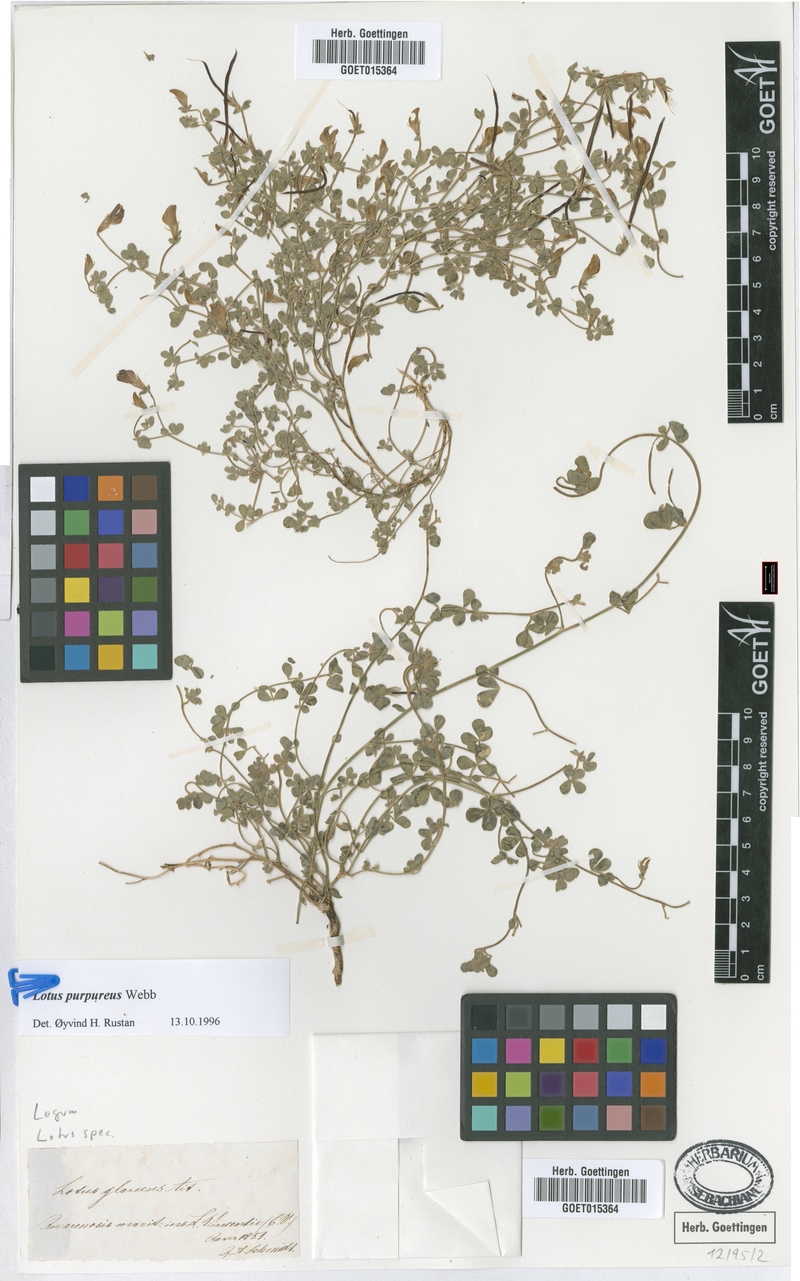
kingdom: Plantae
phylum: Tracheophyta
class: Magnoliopsida
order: Fabales
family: Fabaceae
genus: Lotus
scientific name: Lotus purpureus
